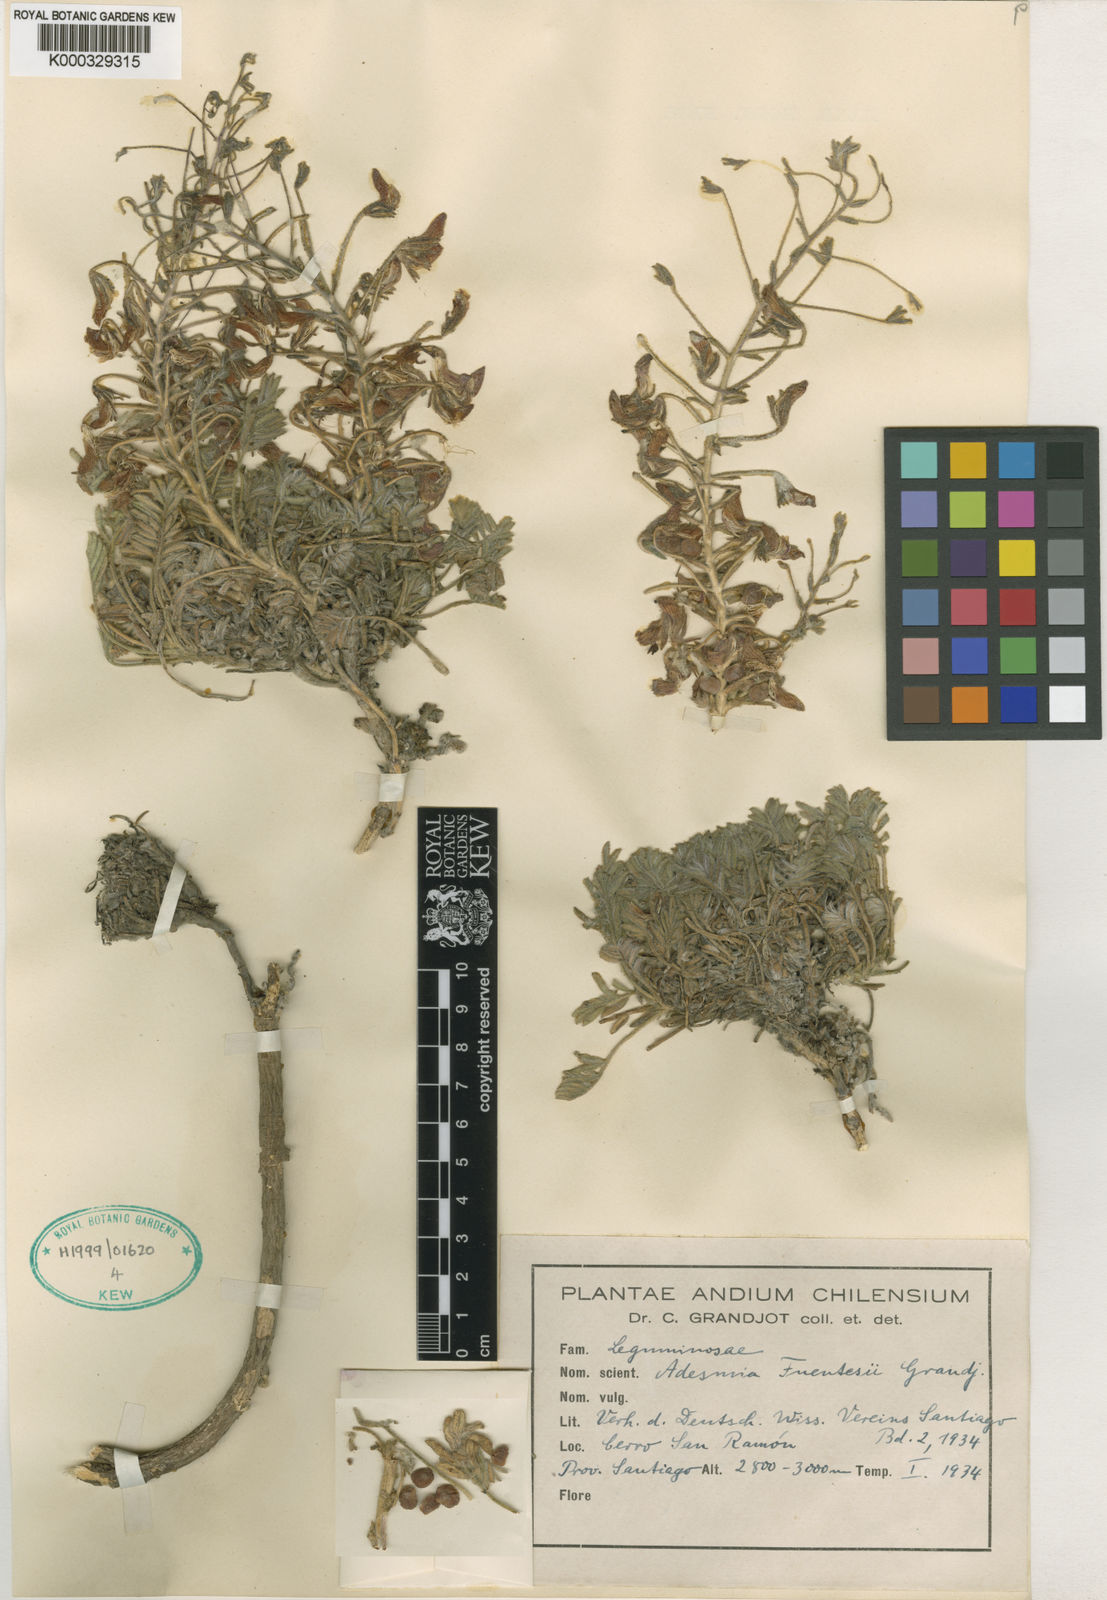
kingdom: Plantae
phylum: Tracheophyta
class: Magnoliopsida
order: Fabales
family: Fabaceae
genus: Adesmia
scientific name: Adesmia fuentesii
